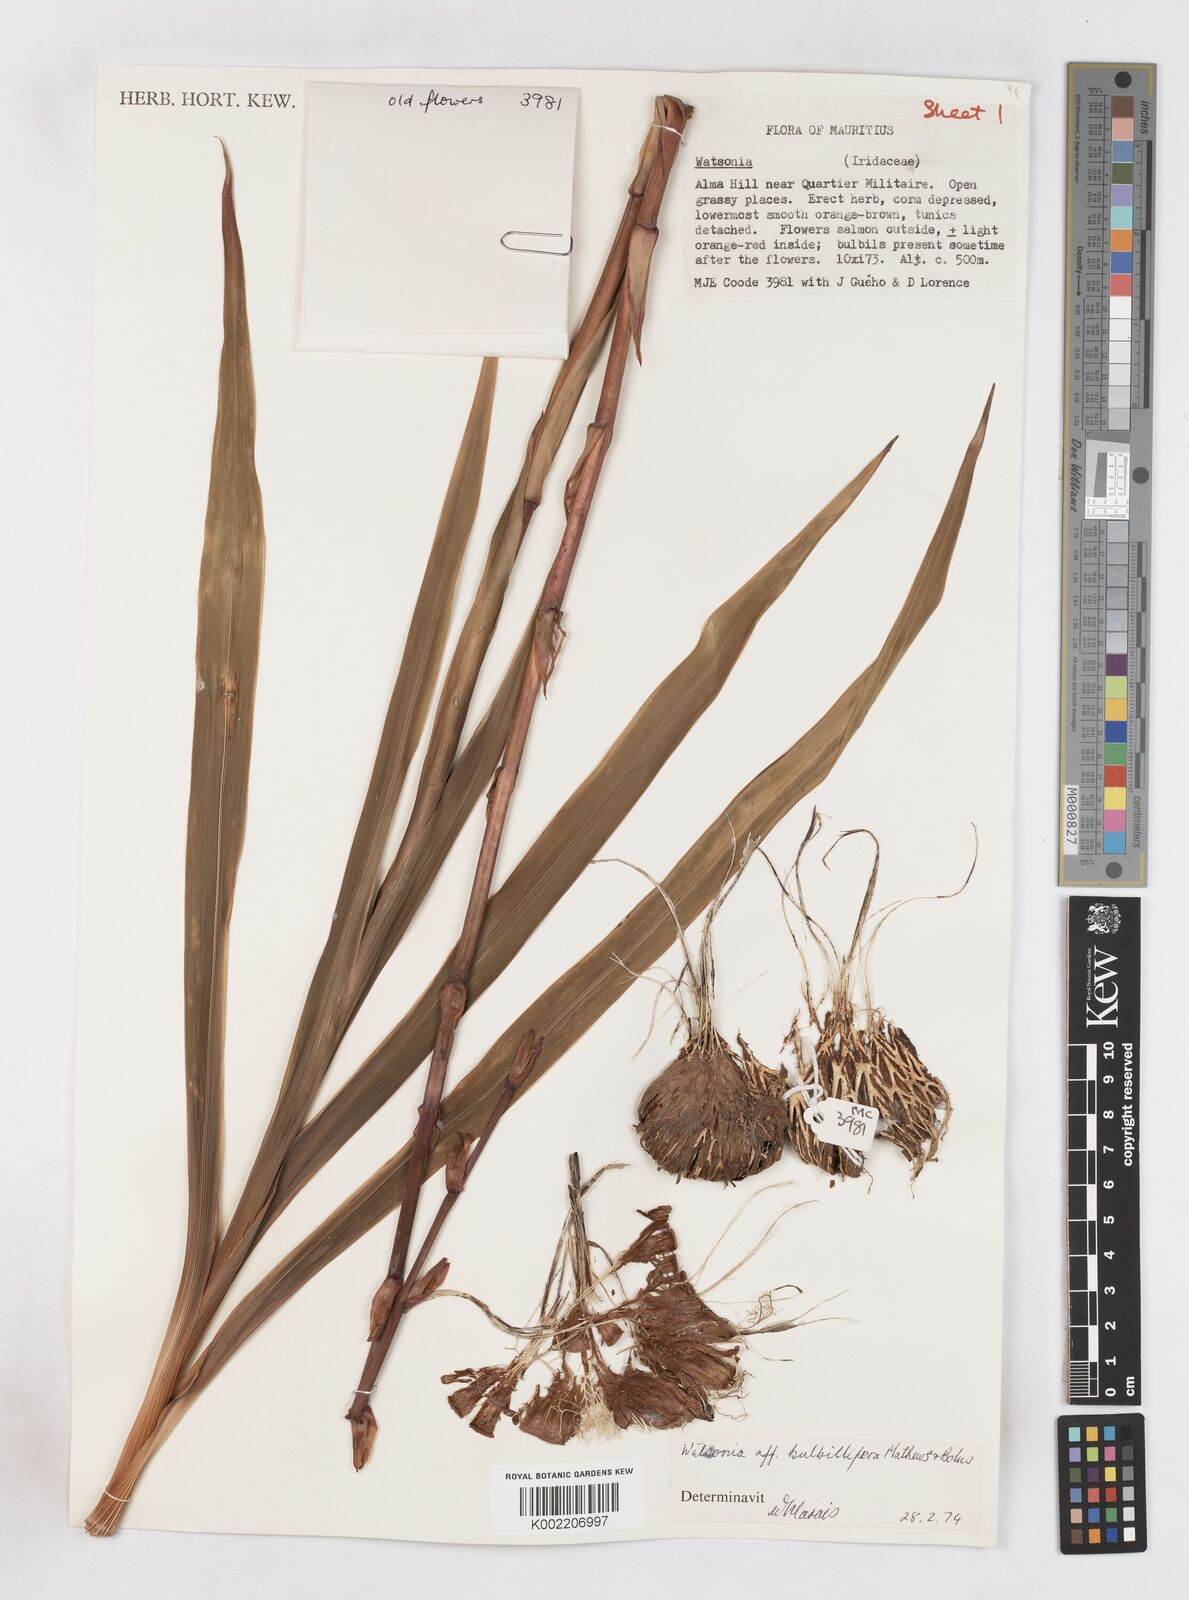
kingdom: Plantae
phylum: Tracheophyta
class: Liliopsida
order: Asparagales
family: Iridaceae
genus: Watsonia
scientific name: Watsonia meriana
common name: Bulbil bugle-lily
